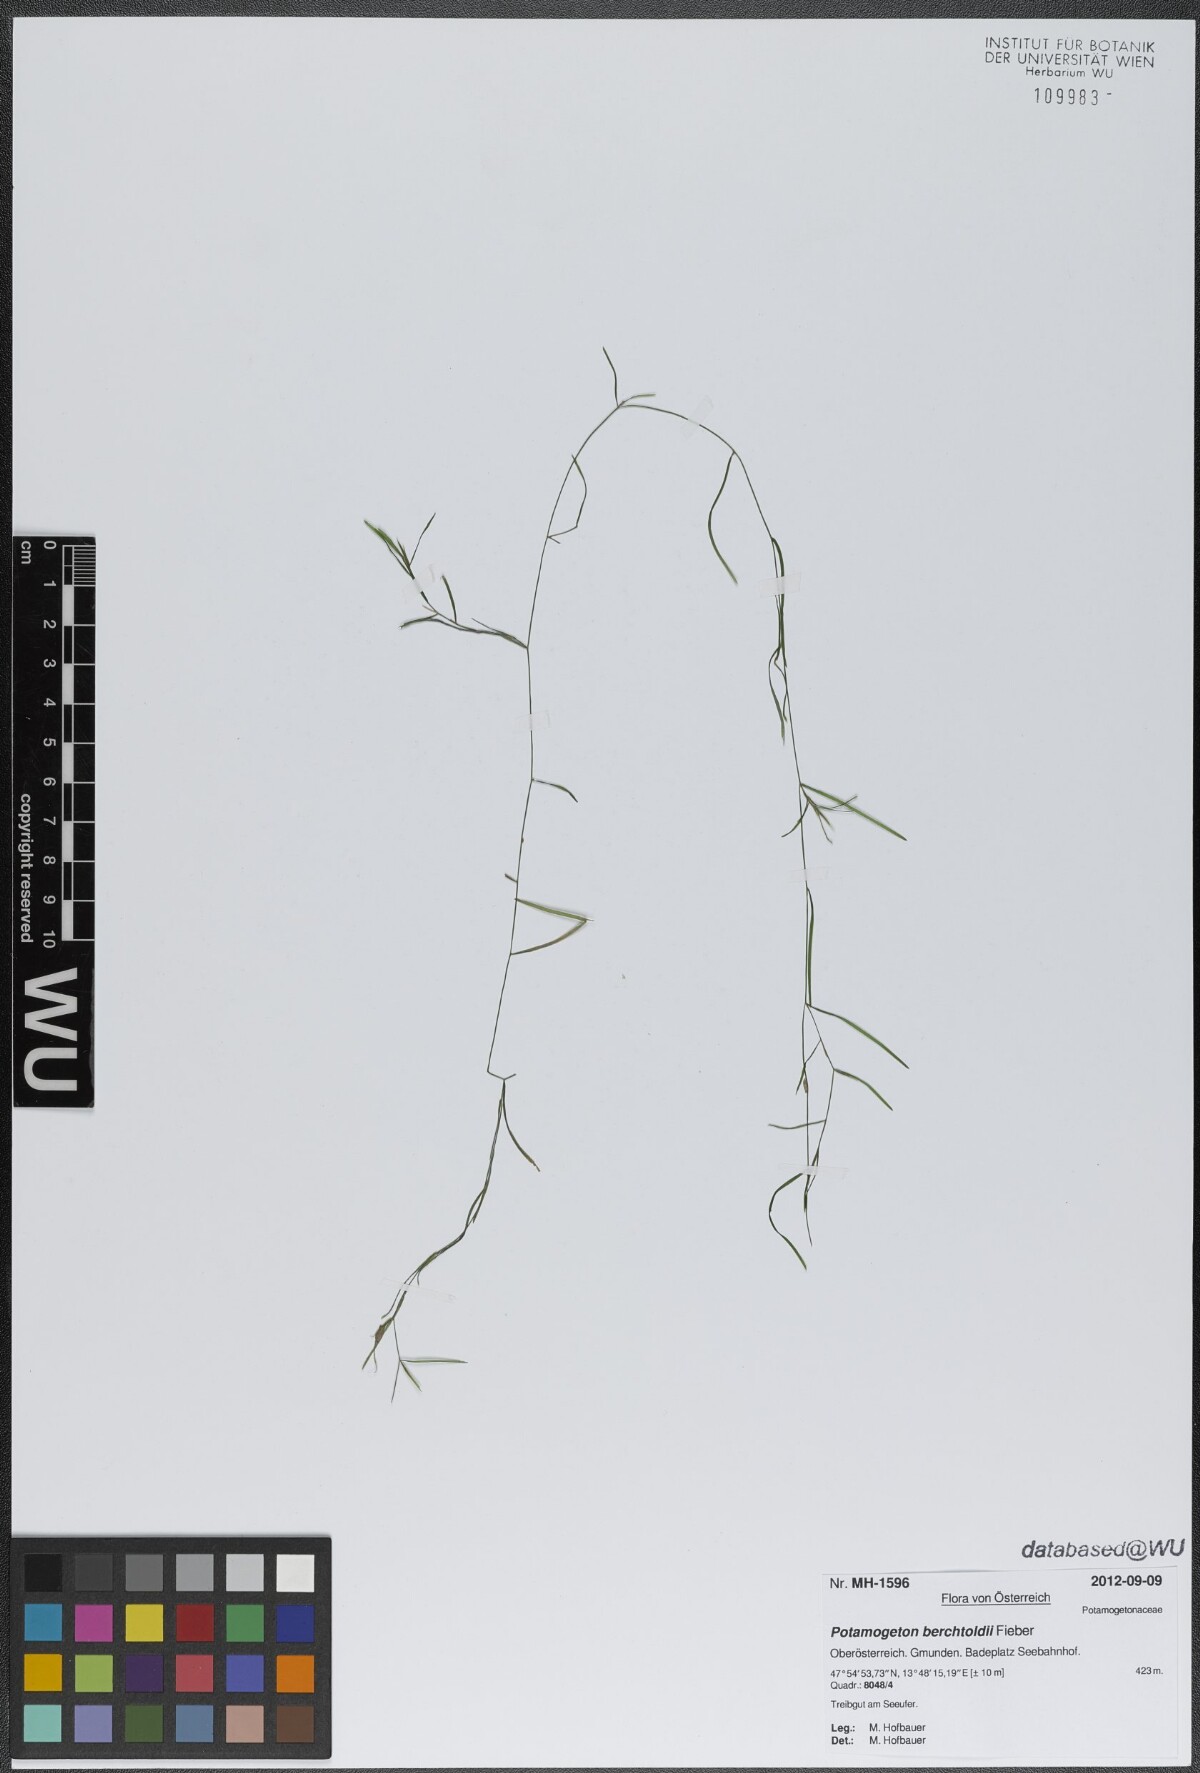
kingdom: Plantae
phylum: Tracheophyta
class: Liliopsida
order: Alismatales
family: Potamogetonaceae
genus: Potamogeton
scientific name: Potamogeton berchtoldii
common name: Small pondweed
